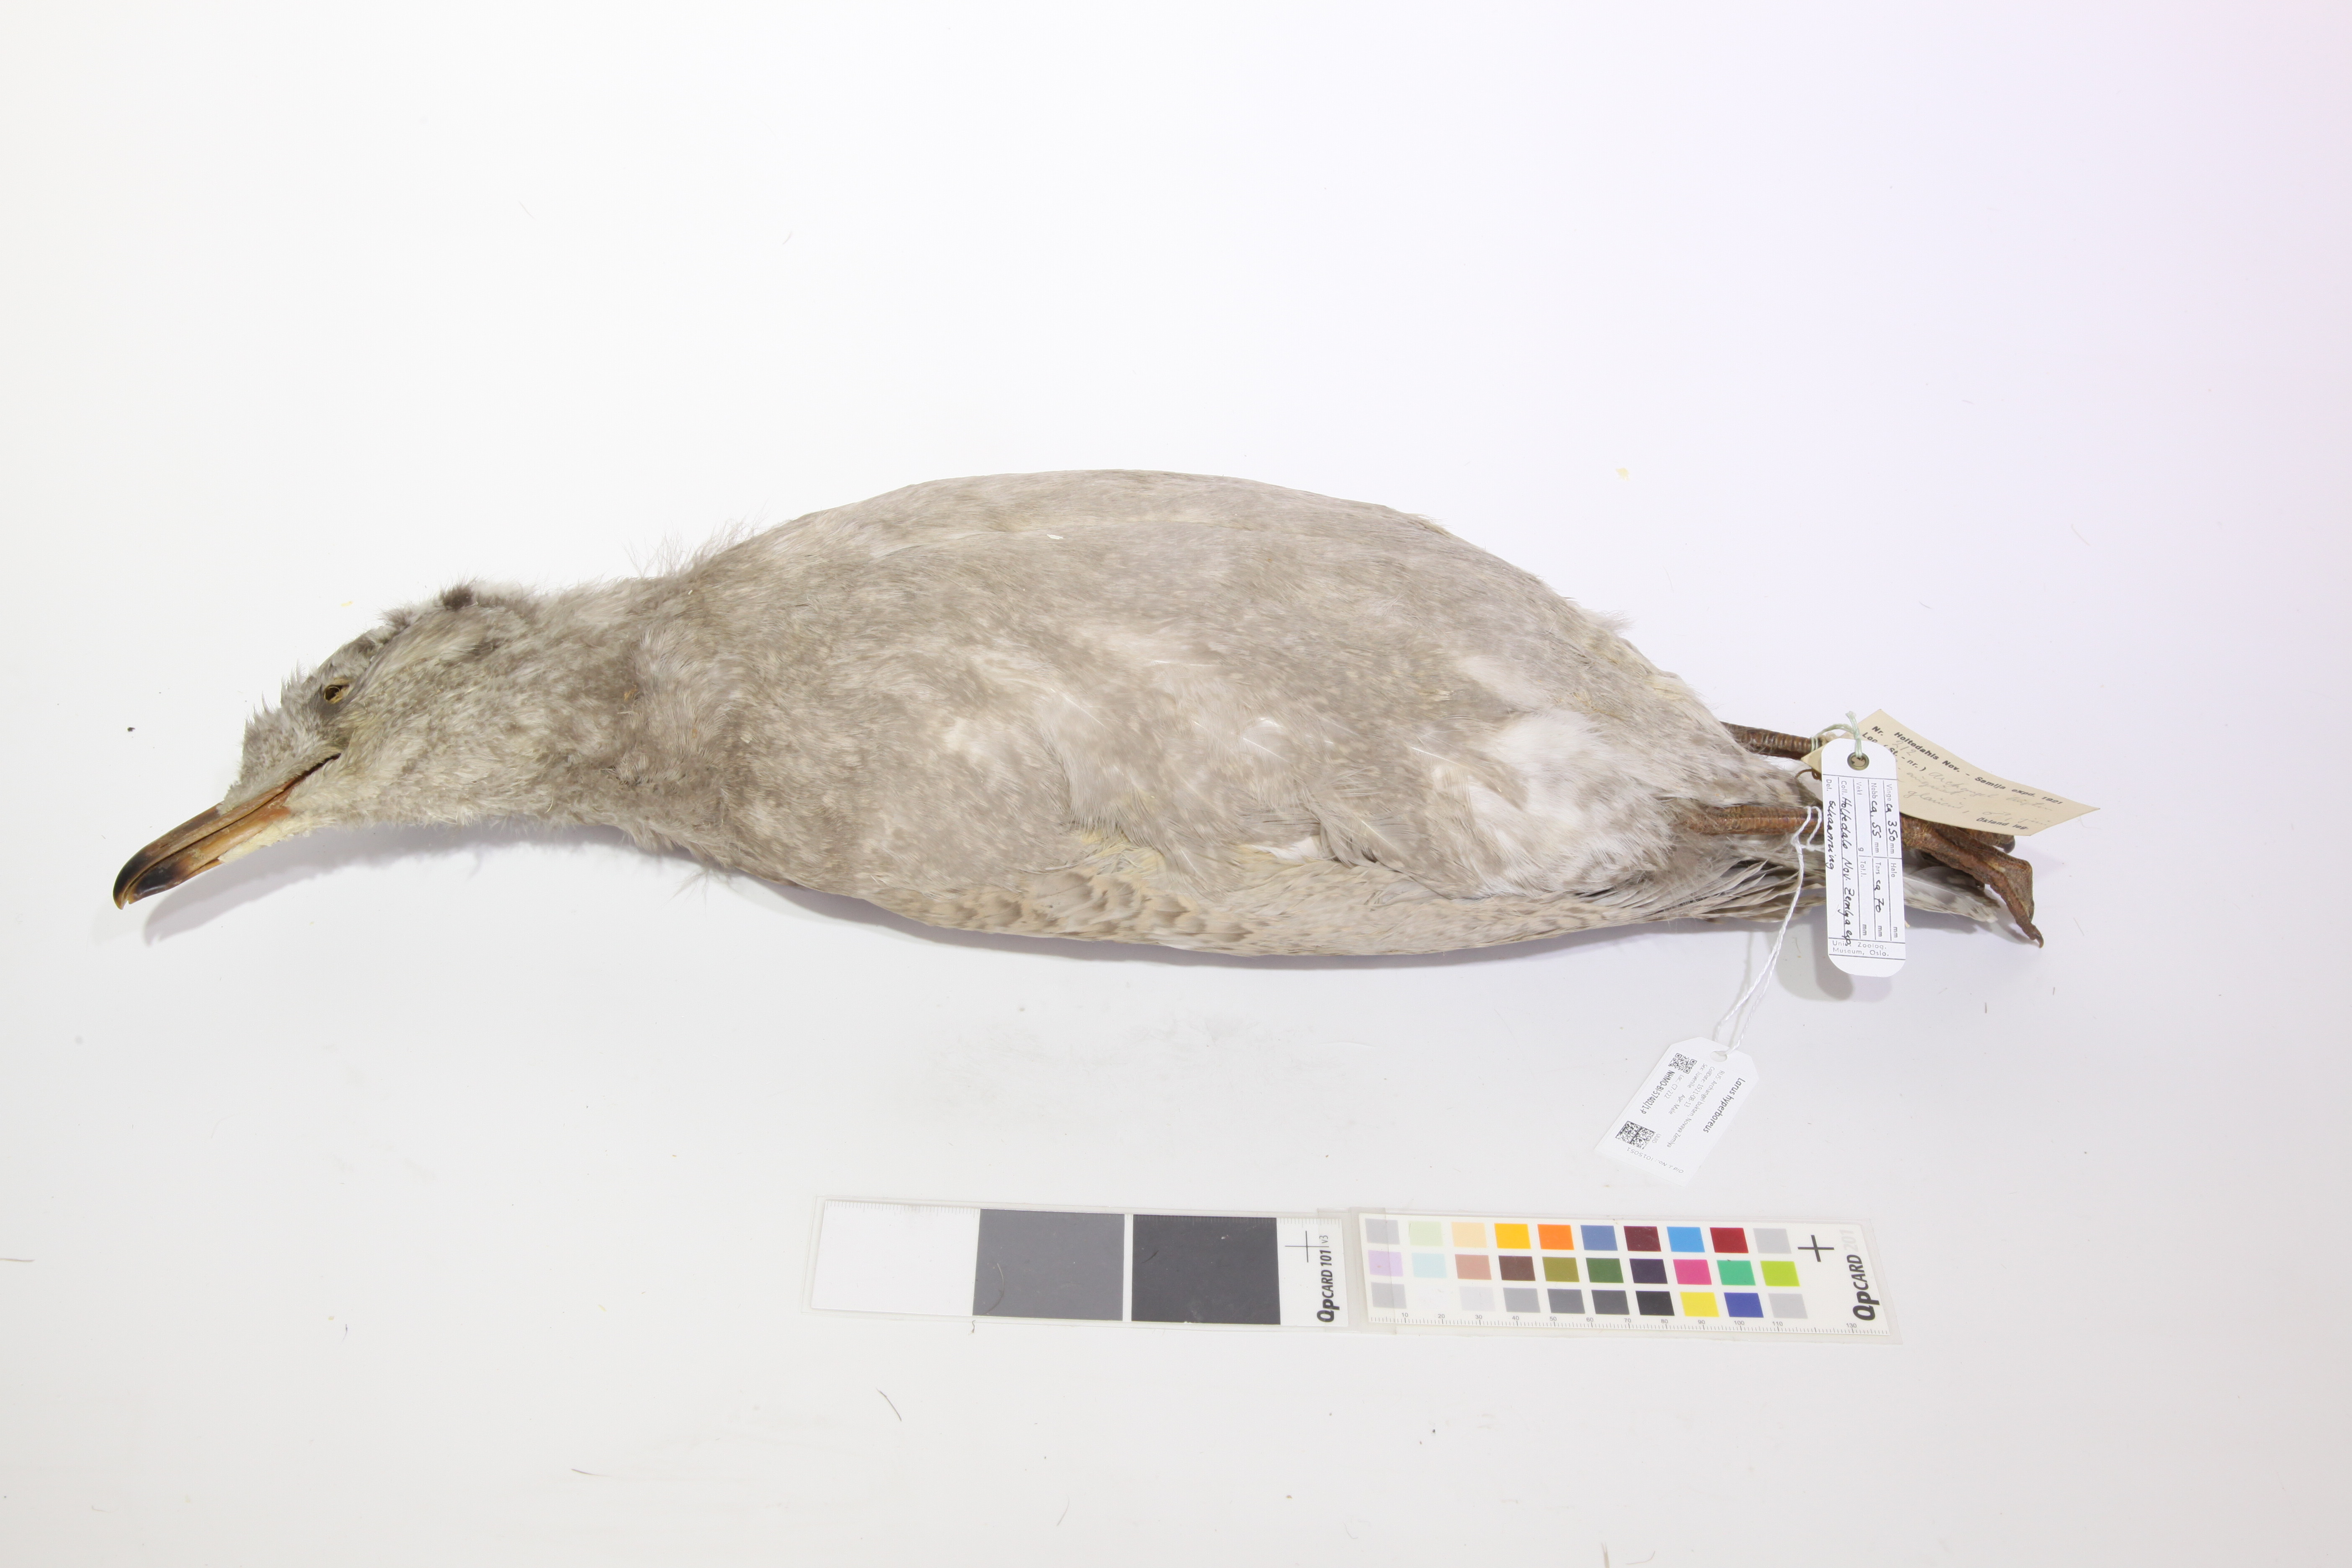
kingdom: Animalia
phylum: Chordata
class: Aves
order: Charadriiformes
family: Laridae
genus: Larus
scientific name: Larus hyperboreus
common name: Glaucous gull
